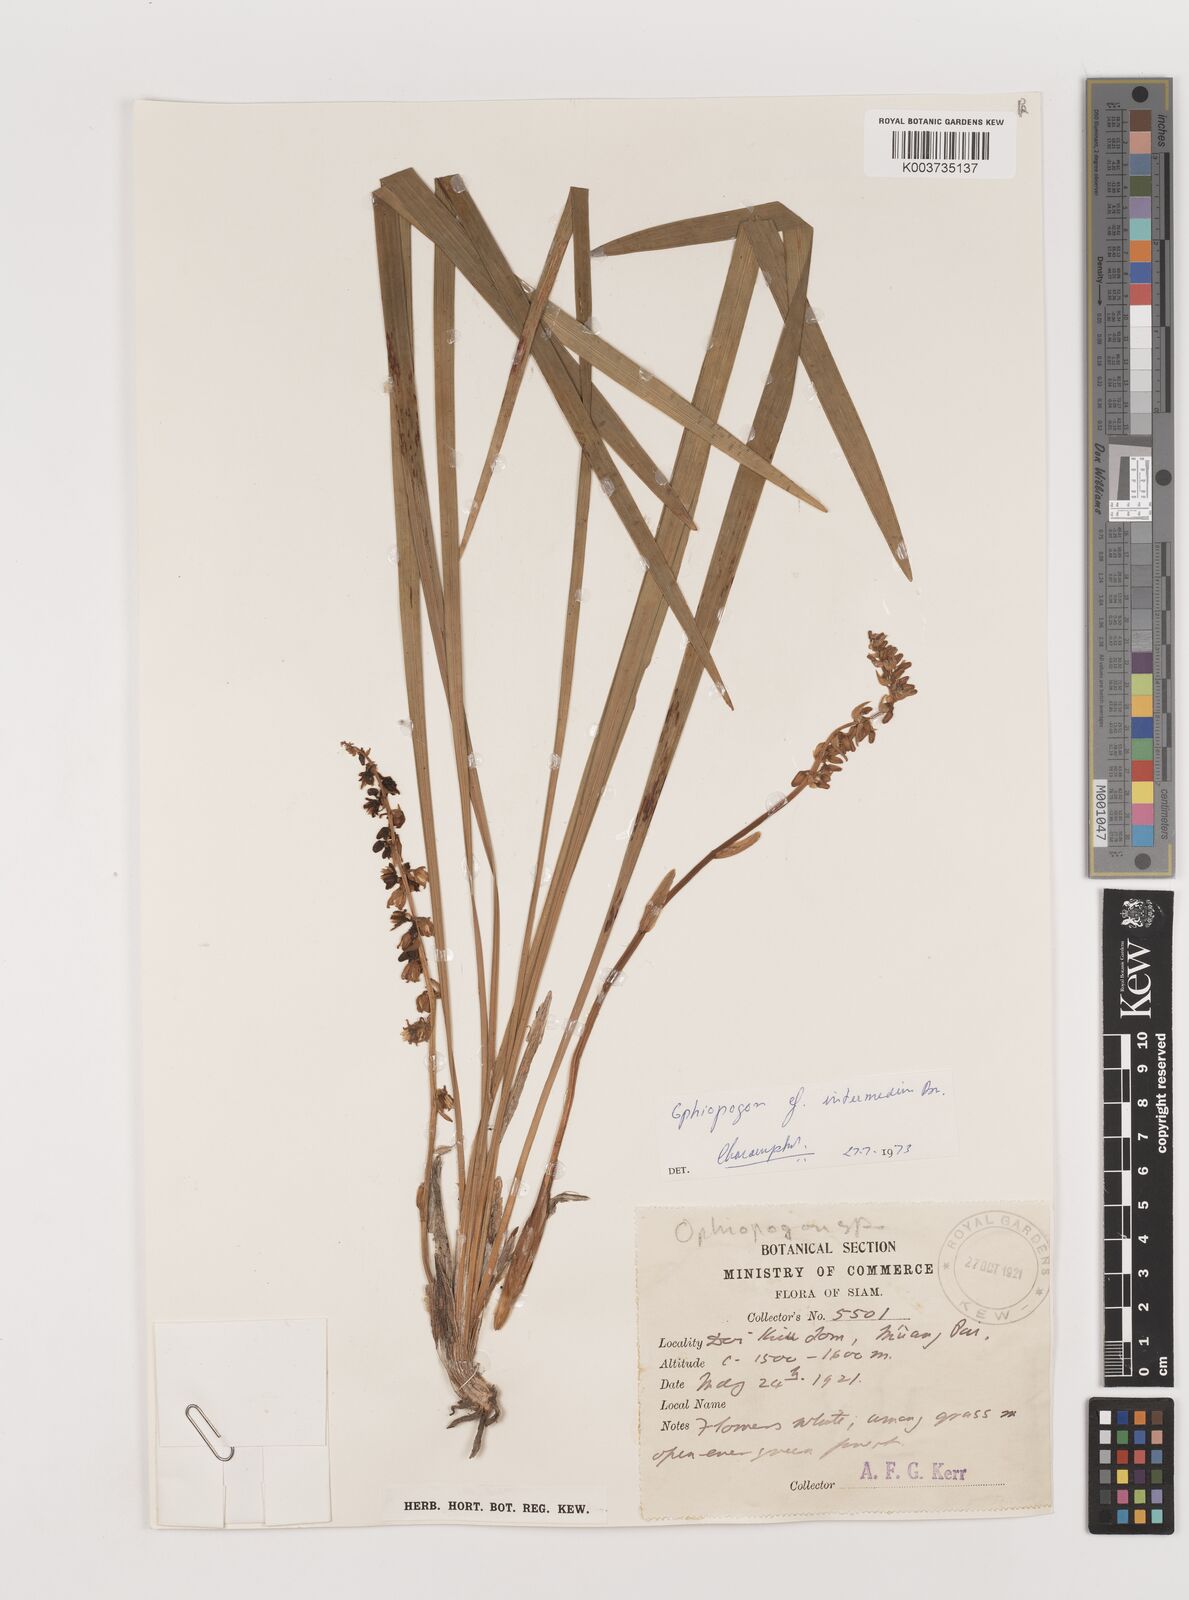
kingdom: Plantae
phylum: Tracheophyta
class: Liliopsida
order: Asparagales
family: Asparagaceae
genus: Ophiopogon
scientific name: Ophiopogon intermedius
